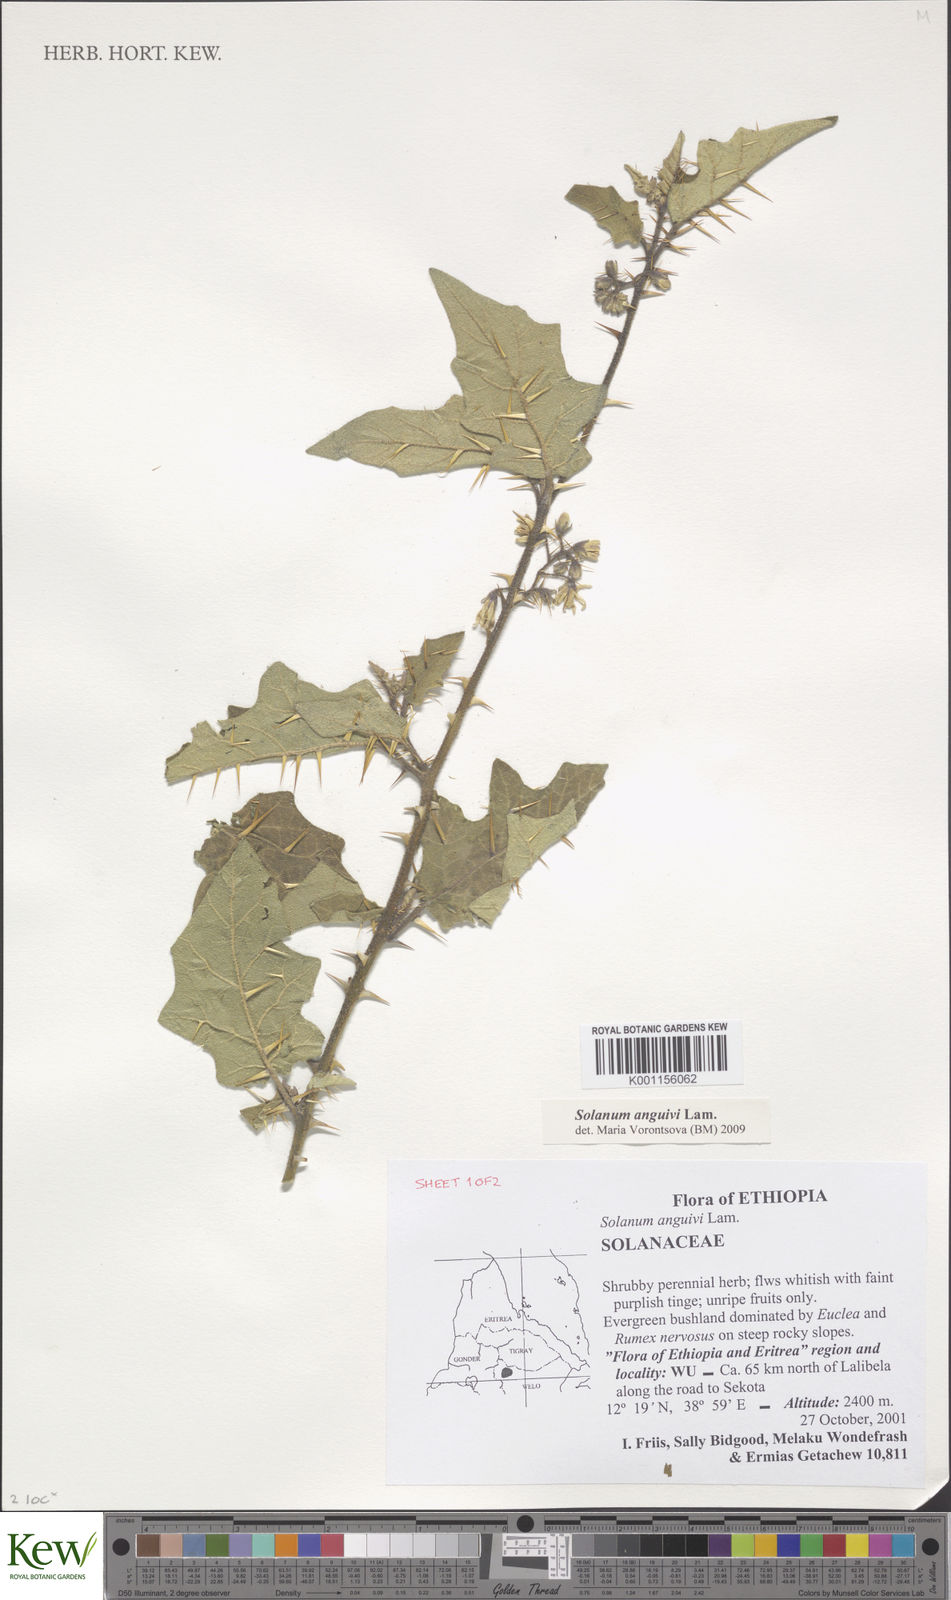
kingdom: Plantae
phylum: Tracheophyta
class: Magnoliopsida
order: Solanales
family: Solanaceae
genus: Solanum
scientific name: Solanum anguivi
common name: Forest bitterberry
